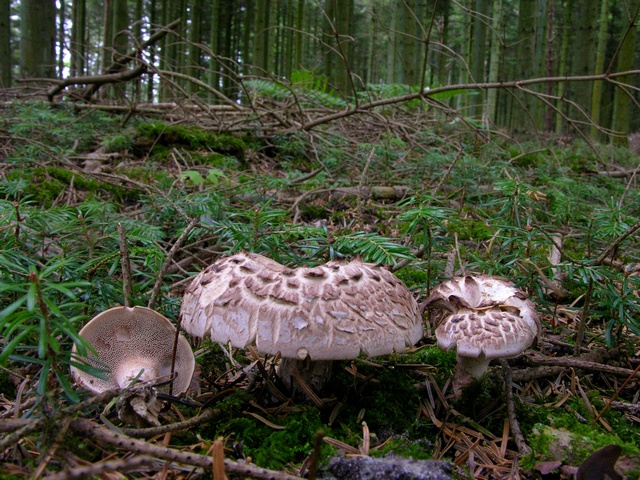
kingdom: Fungi
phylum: Basidiomycota
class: Agaricomycetes
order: Thelephorales
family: Bankeraceae
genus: Sarcodon
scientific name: Sarcodon imbricatus
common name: skællet kødpigsvamp
